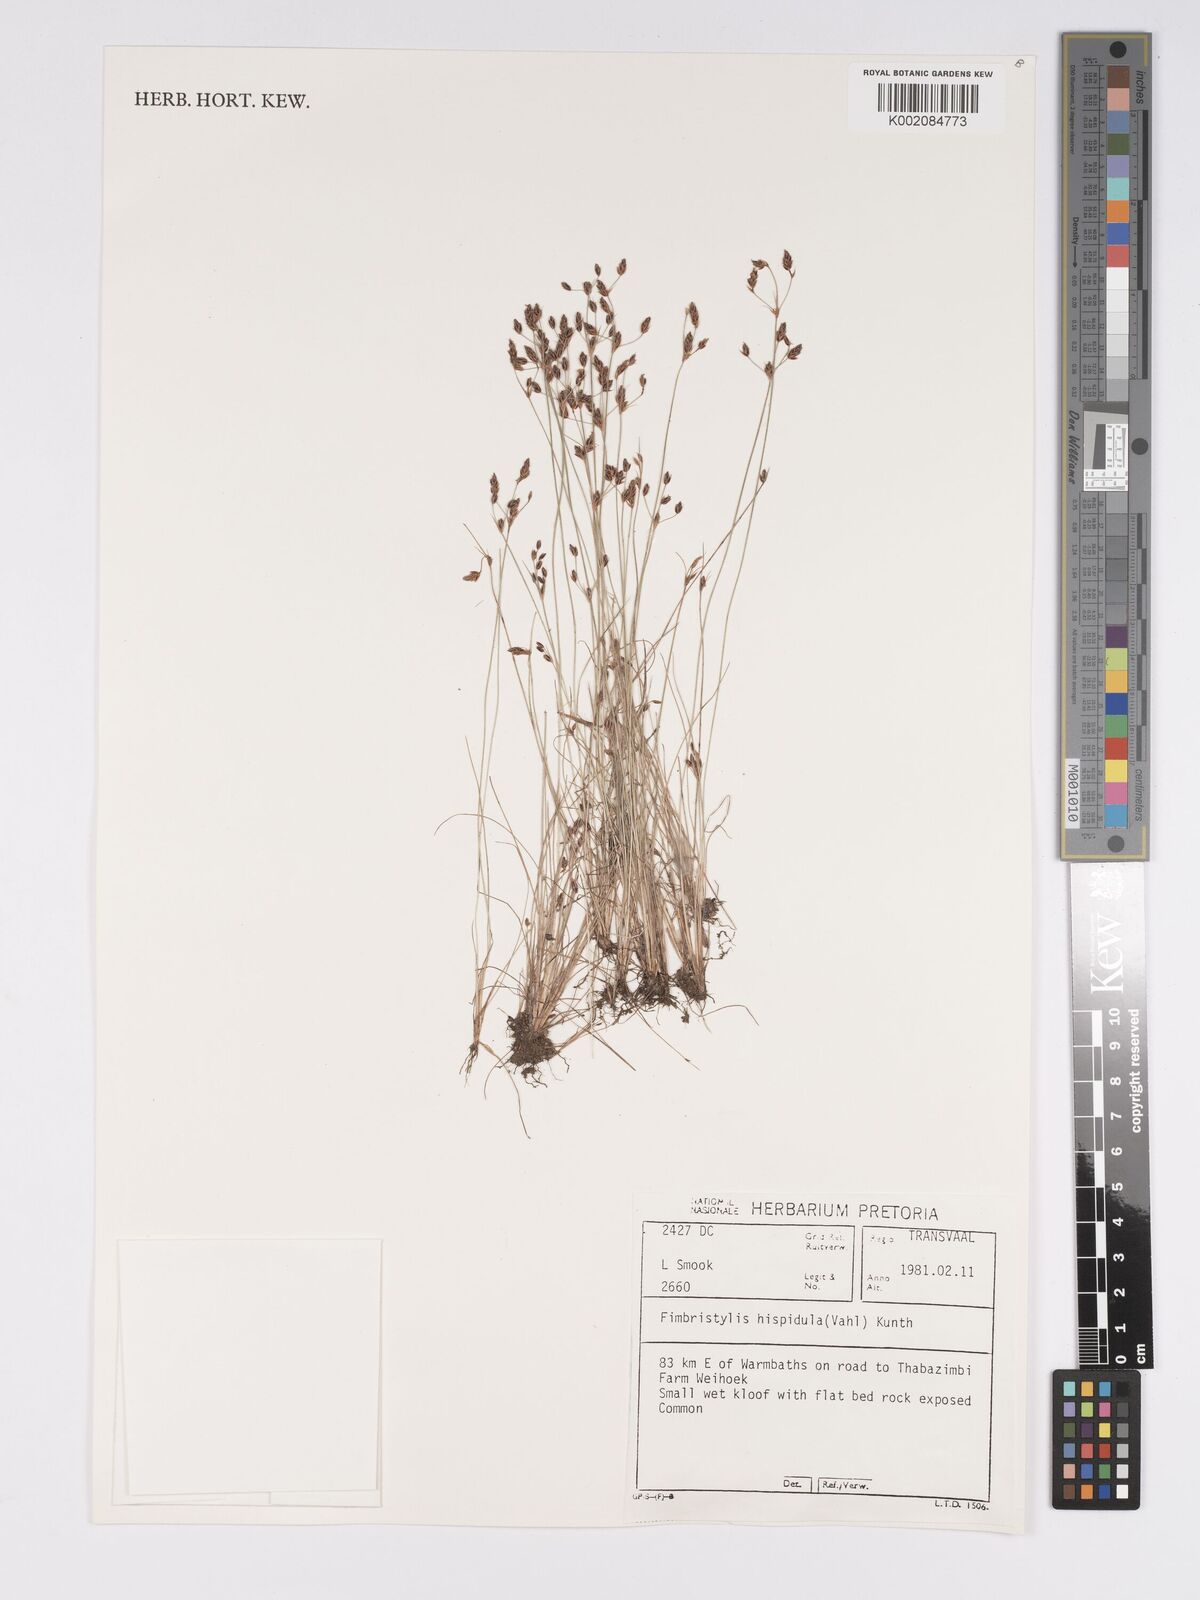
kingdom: Plantae
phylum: Tracheophyta
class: Liliopsida
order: Poales
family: Cyperaceae
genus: Bulbostylis
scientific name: Bulbostylis hispidula
